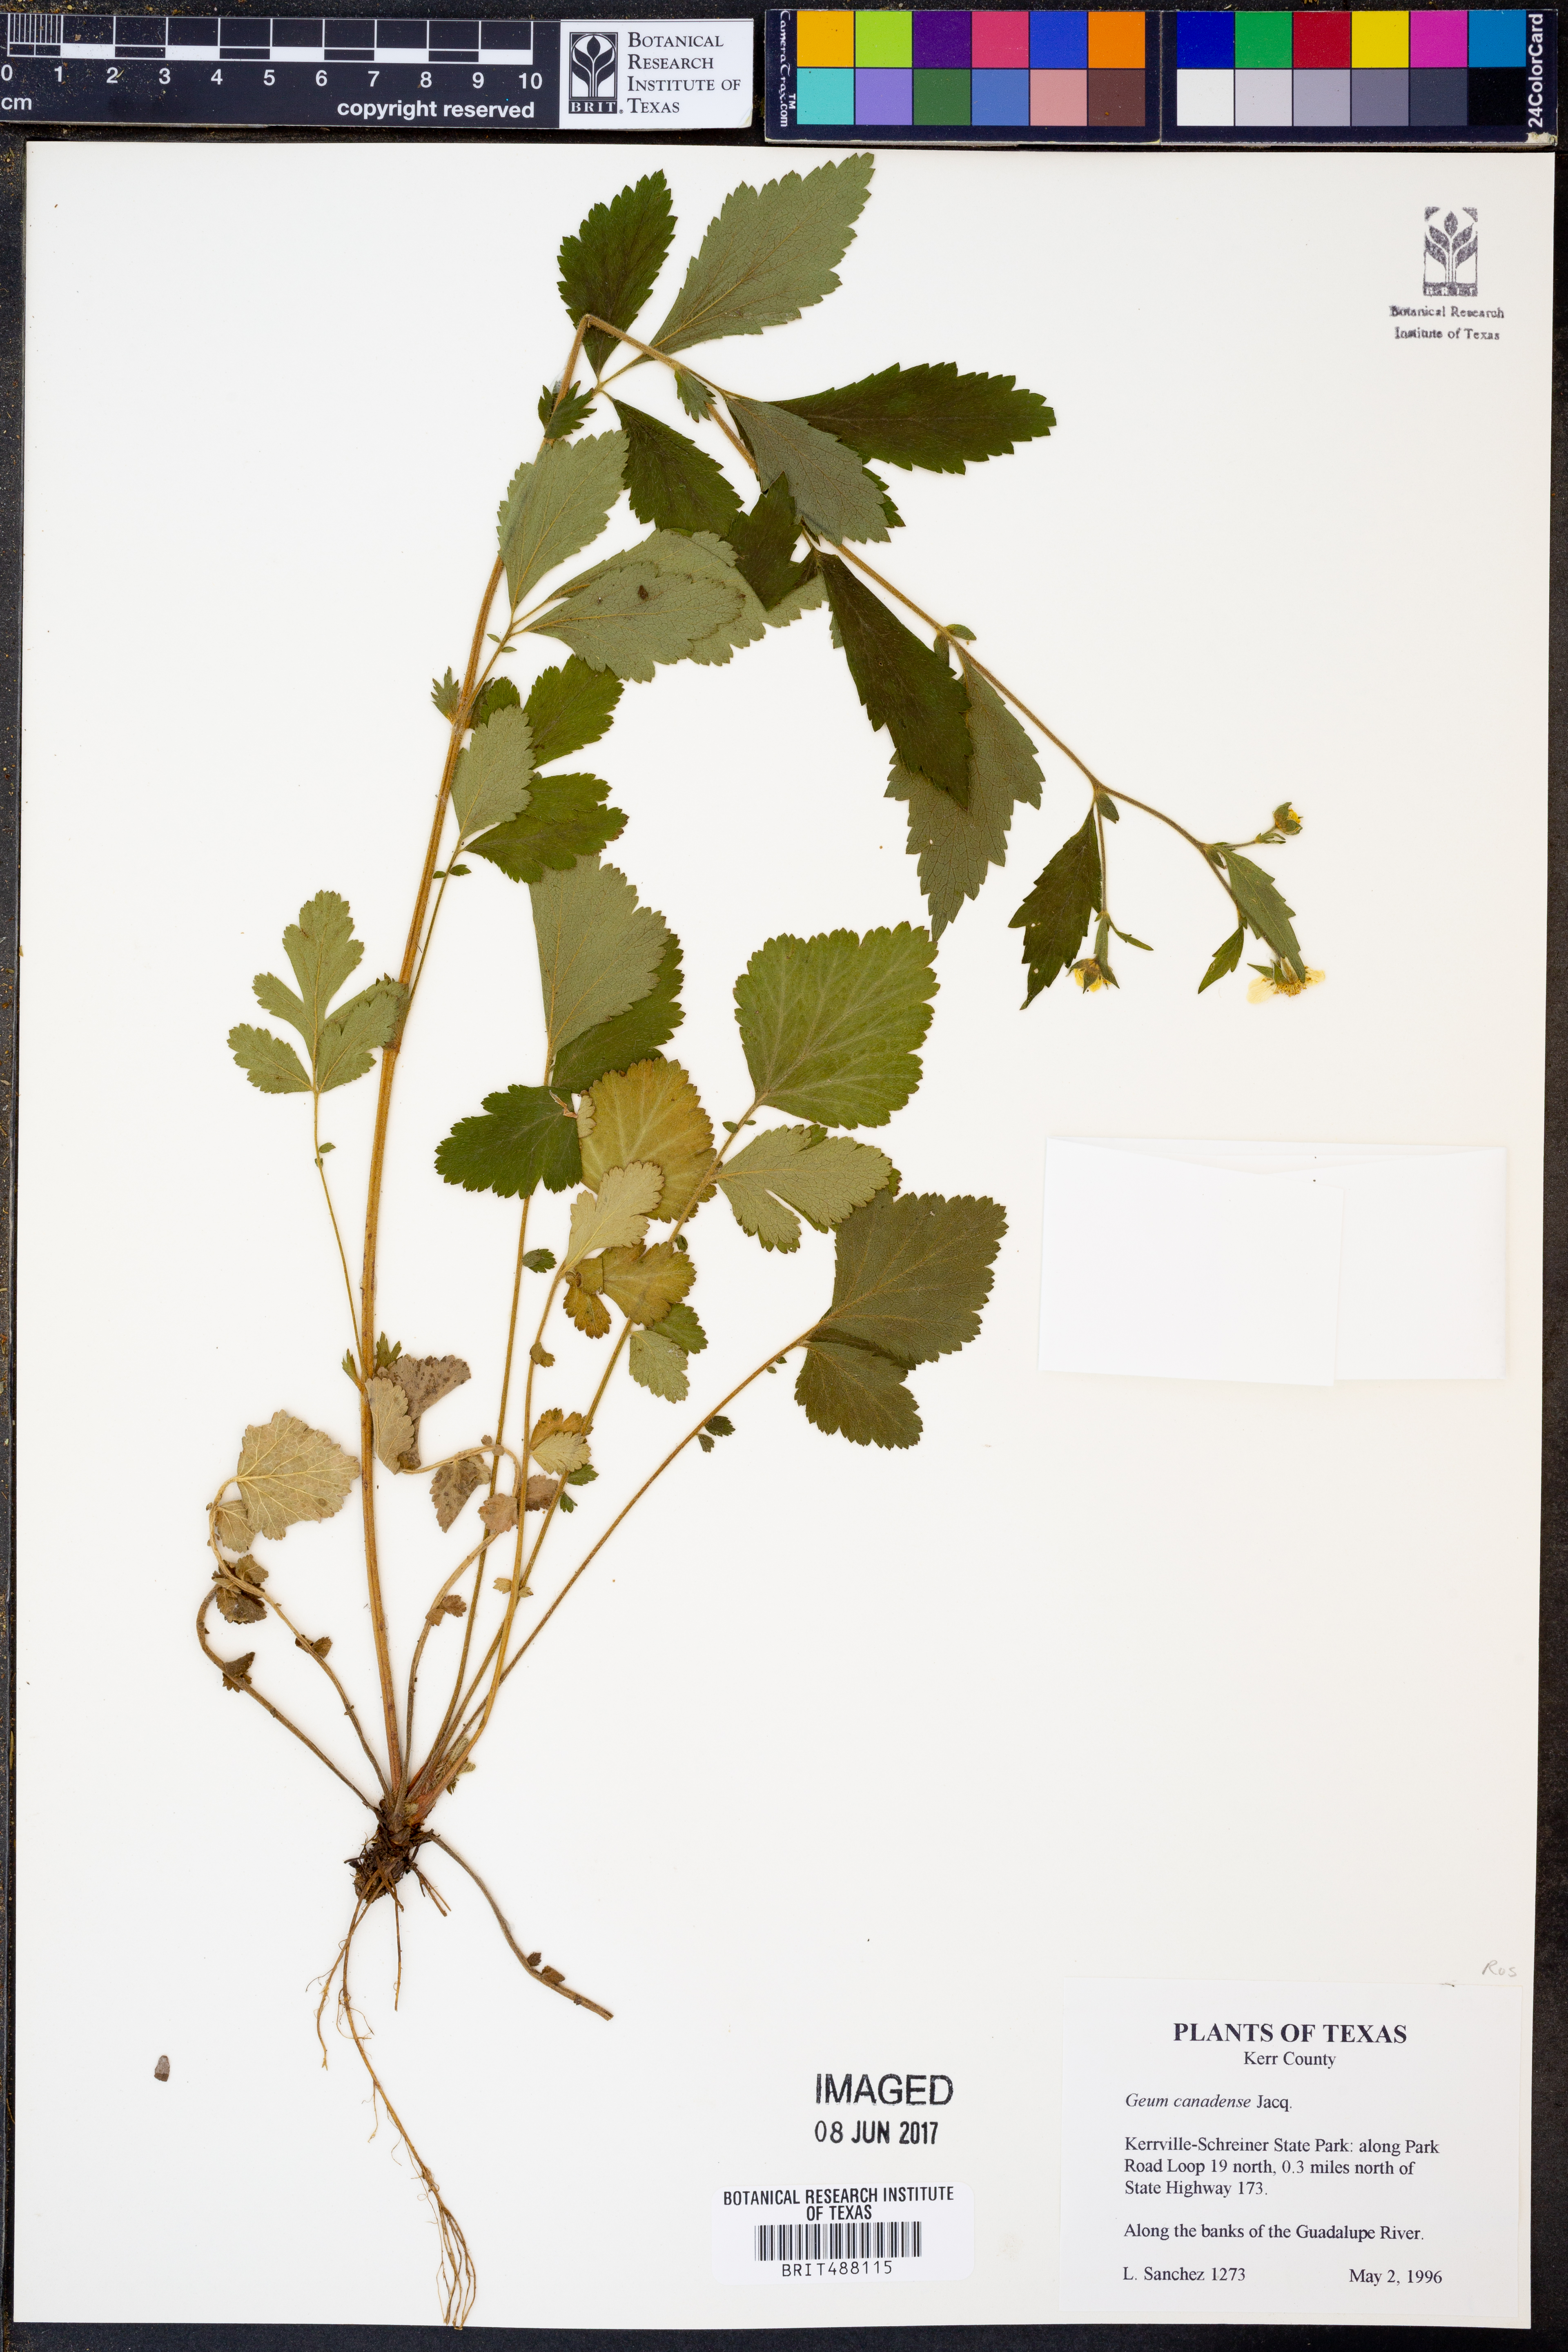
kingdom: Plantae
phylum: Tracheophyta
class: Magnoliopsida
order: Rosales
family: Rosaceae
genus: Geum
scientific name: Geum canadense
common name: White avens
